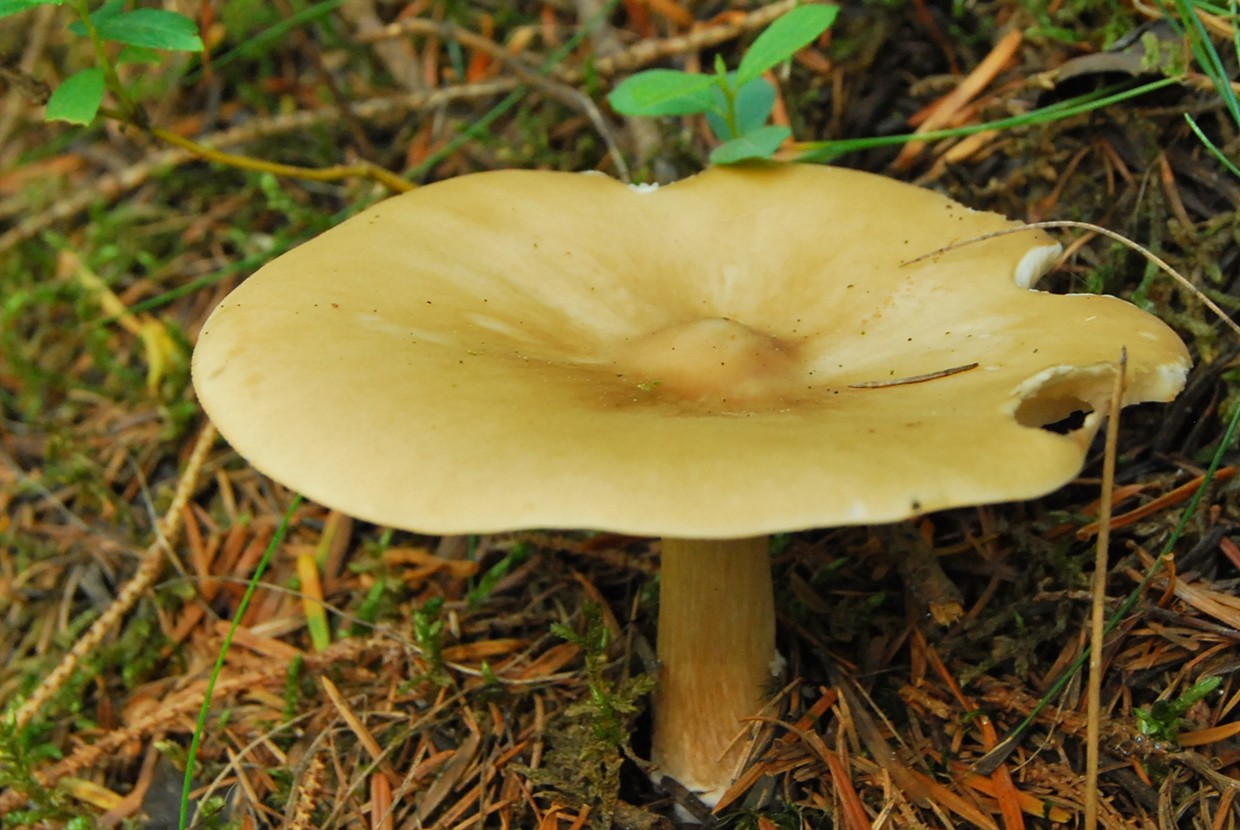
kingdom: Fungi
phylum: Basidiomycota
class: Agaricomycetes
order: Agaricales
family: Tricholomataceae
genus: Melanoleuca
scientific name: Melanoleuca cognata
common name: gyldengrå munkehat
